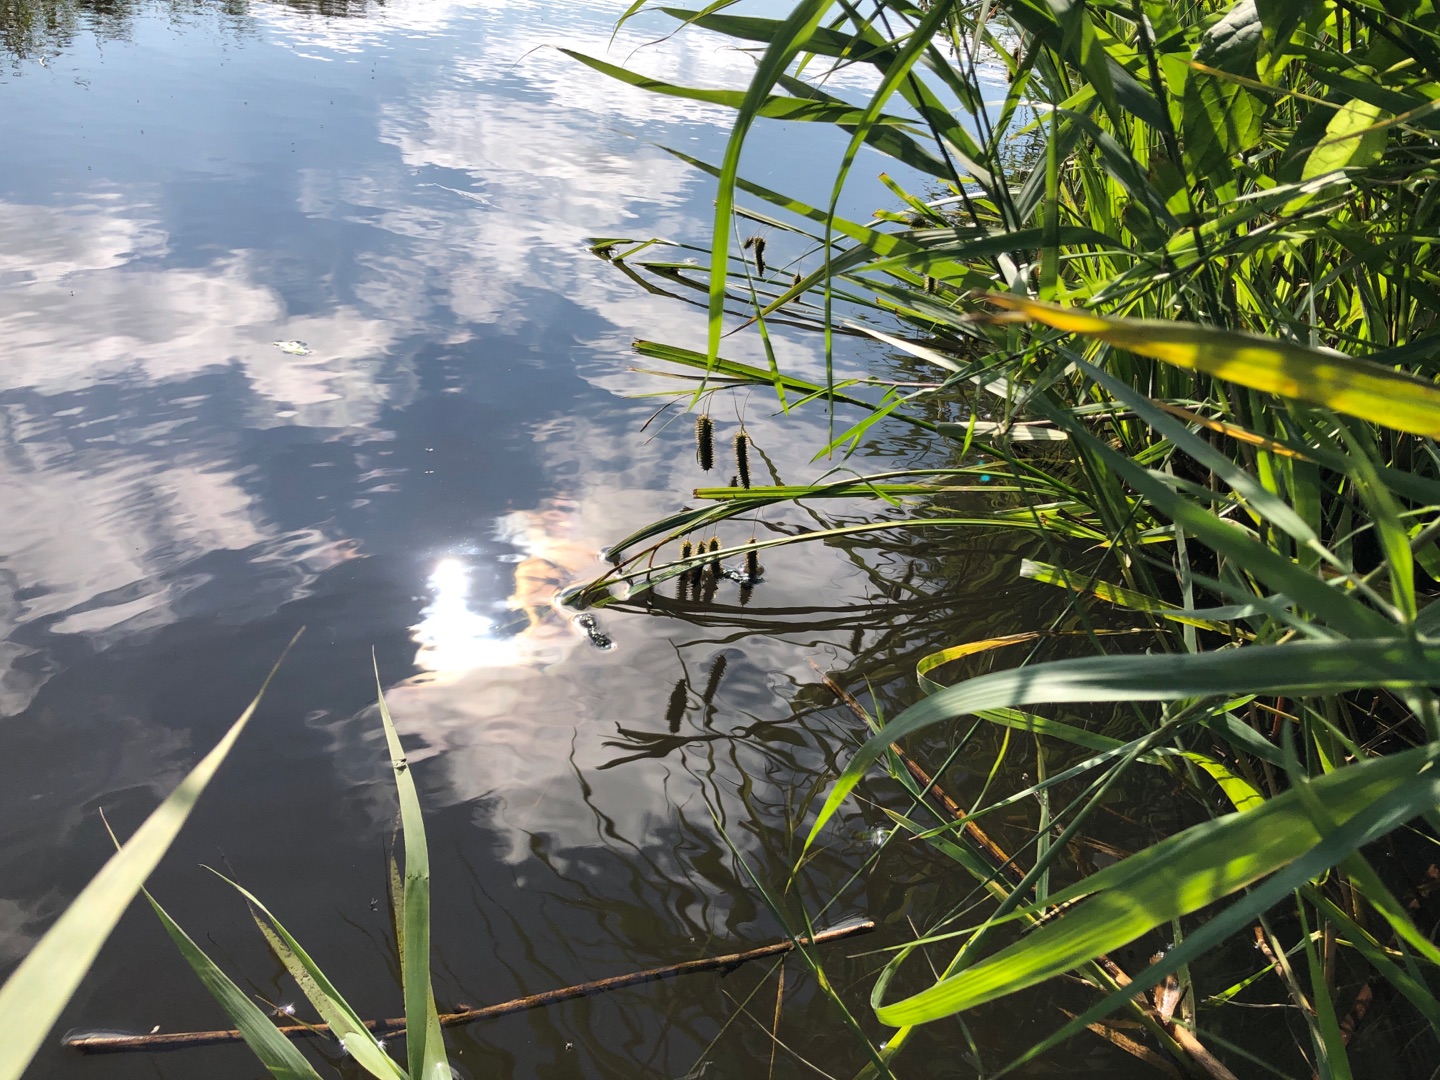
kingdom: Plantae
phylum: Tracheophyta
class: Liliopsida
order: Poales
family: Cyperaceae
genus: Carex
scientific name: Carex pseudocyperus
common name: Knippe-star
